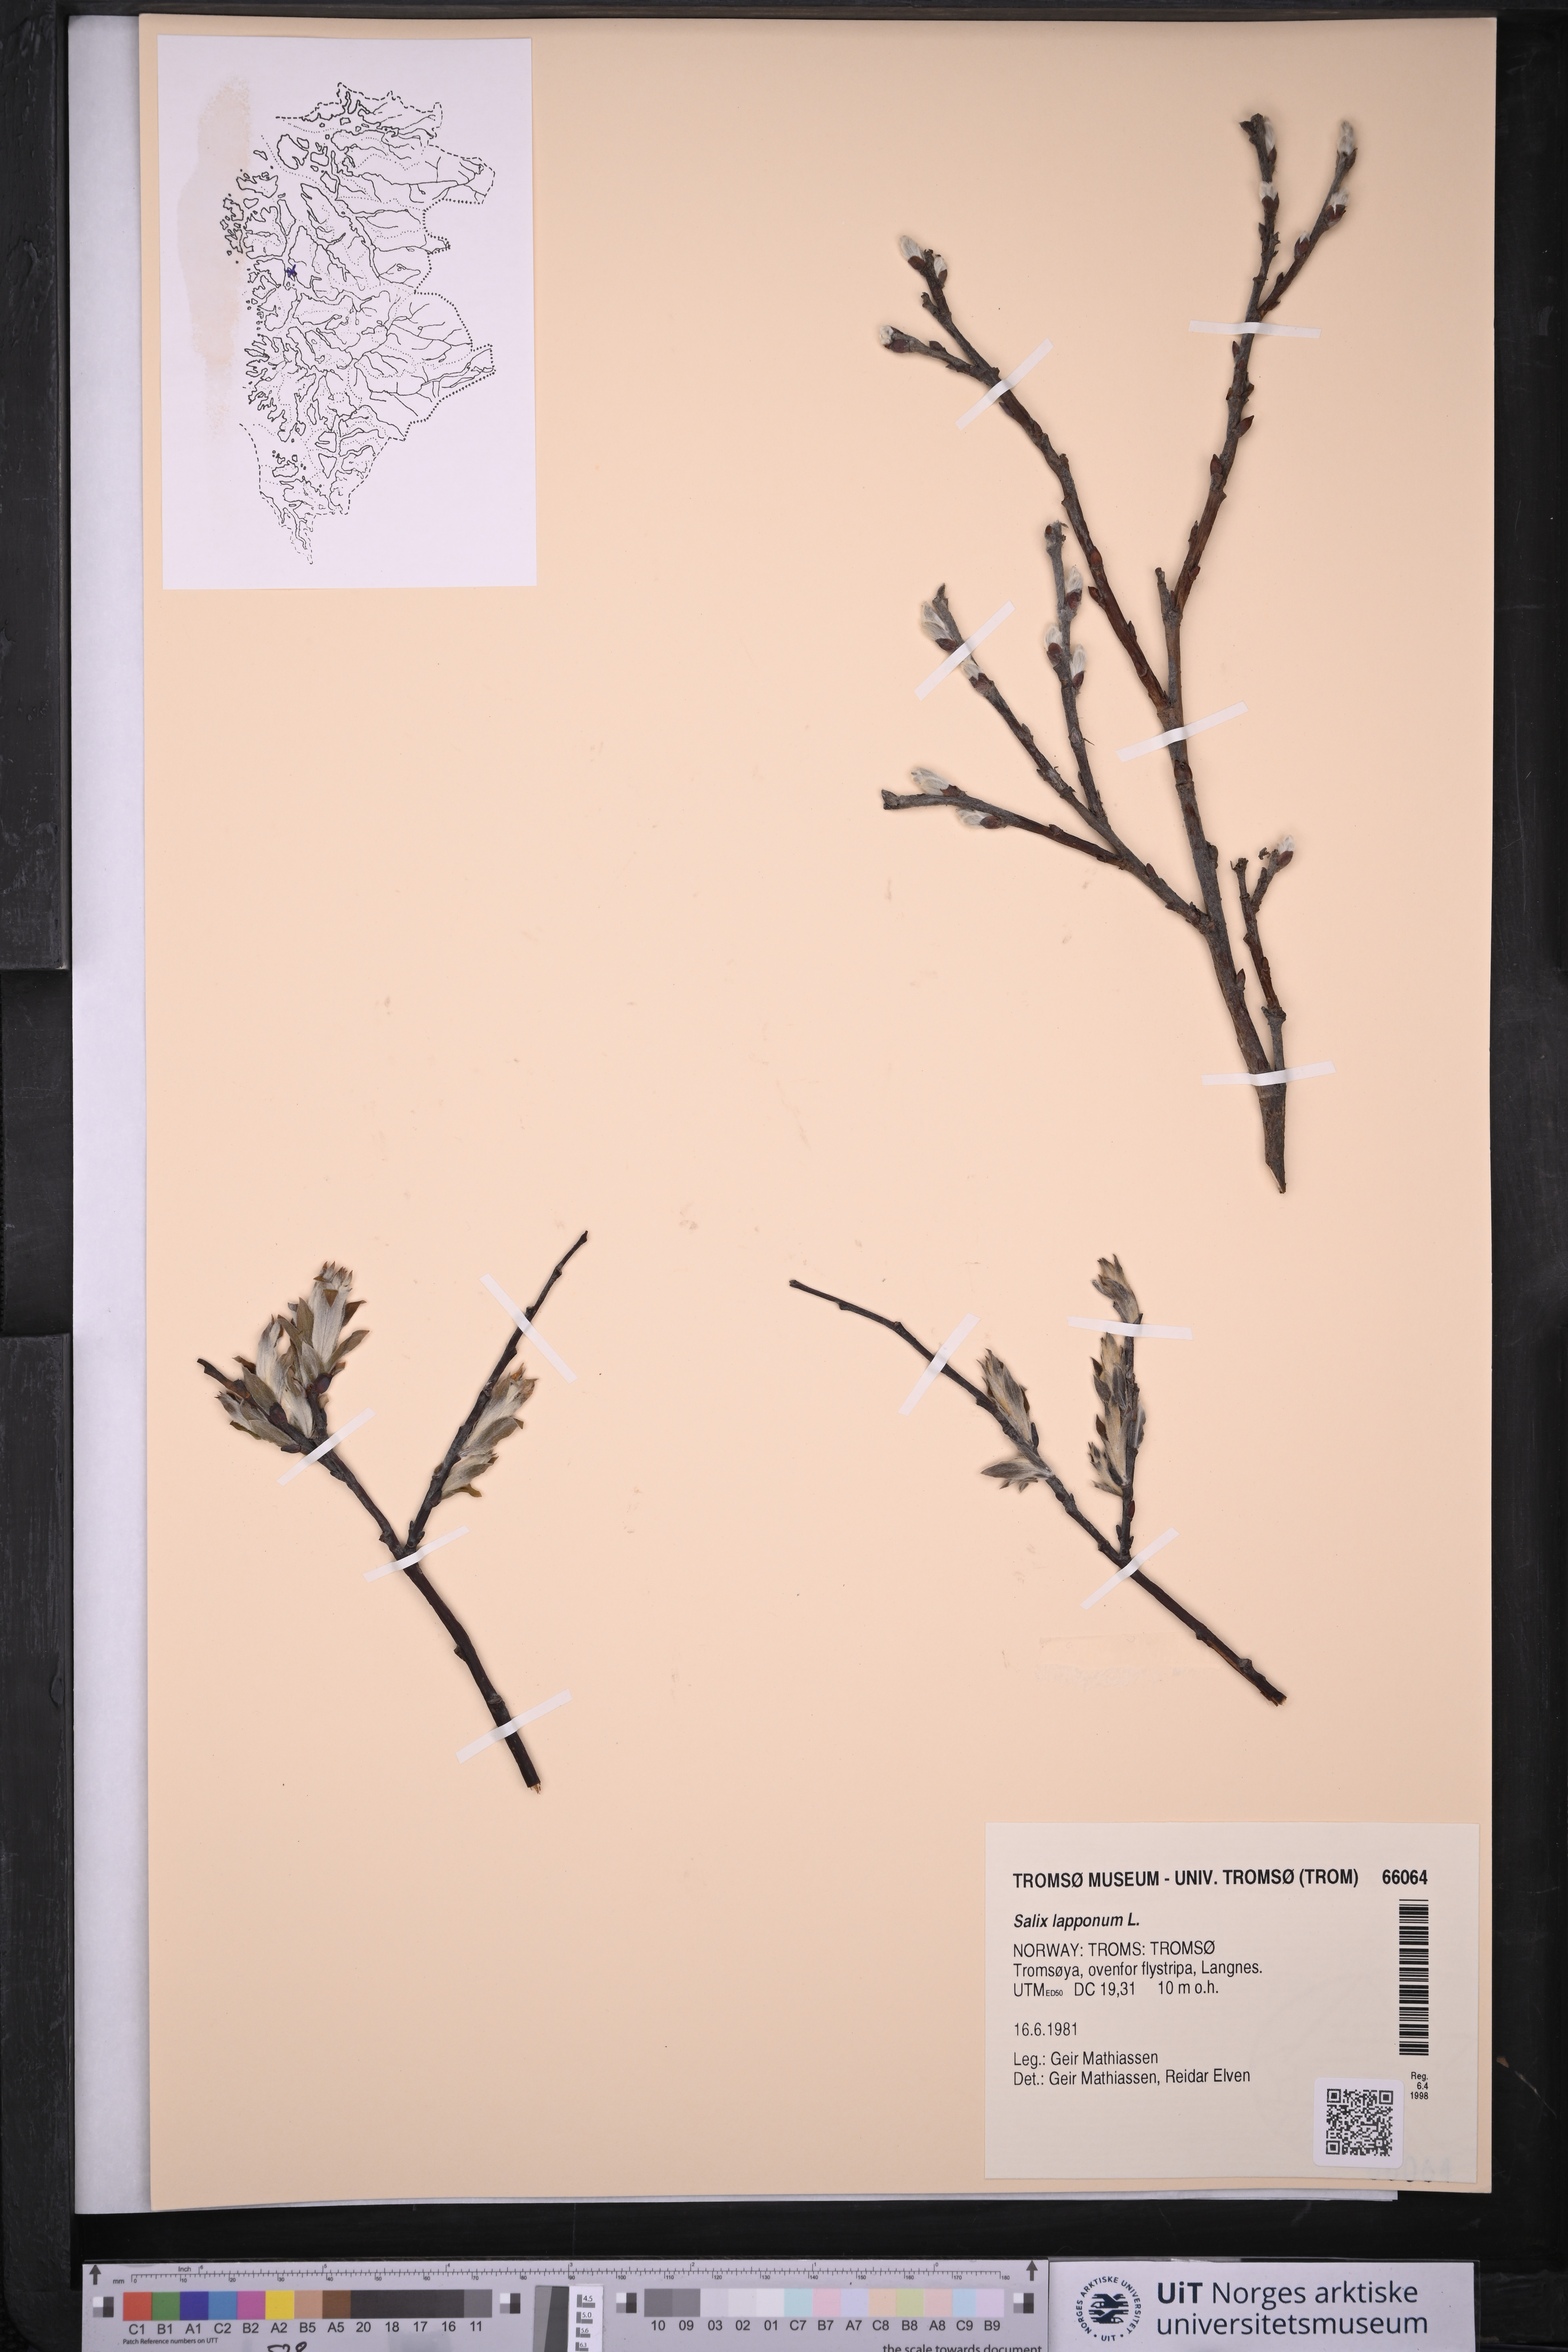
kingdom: Plantae
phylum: Tracheophyta
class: Magnoliopsida
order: Malpighiales
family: Salicaceae
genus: Salix
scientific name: Salix lapponum
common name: Downy willow
